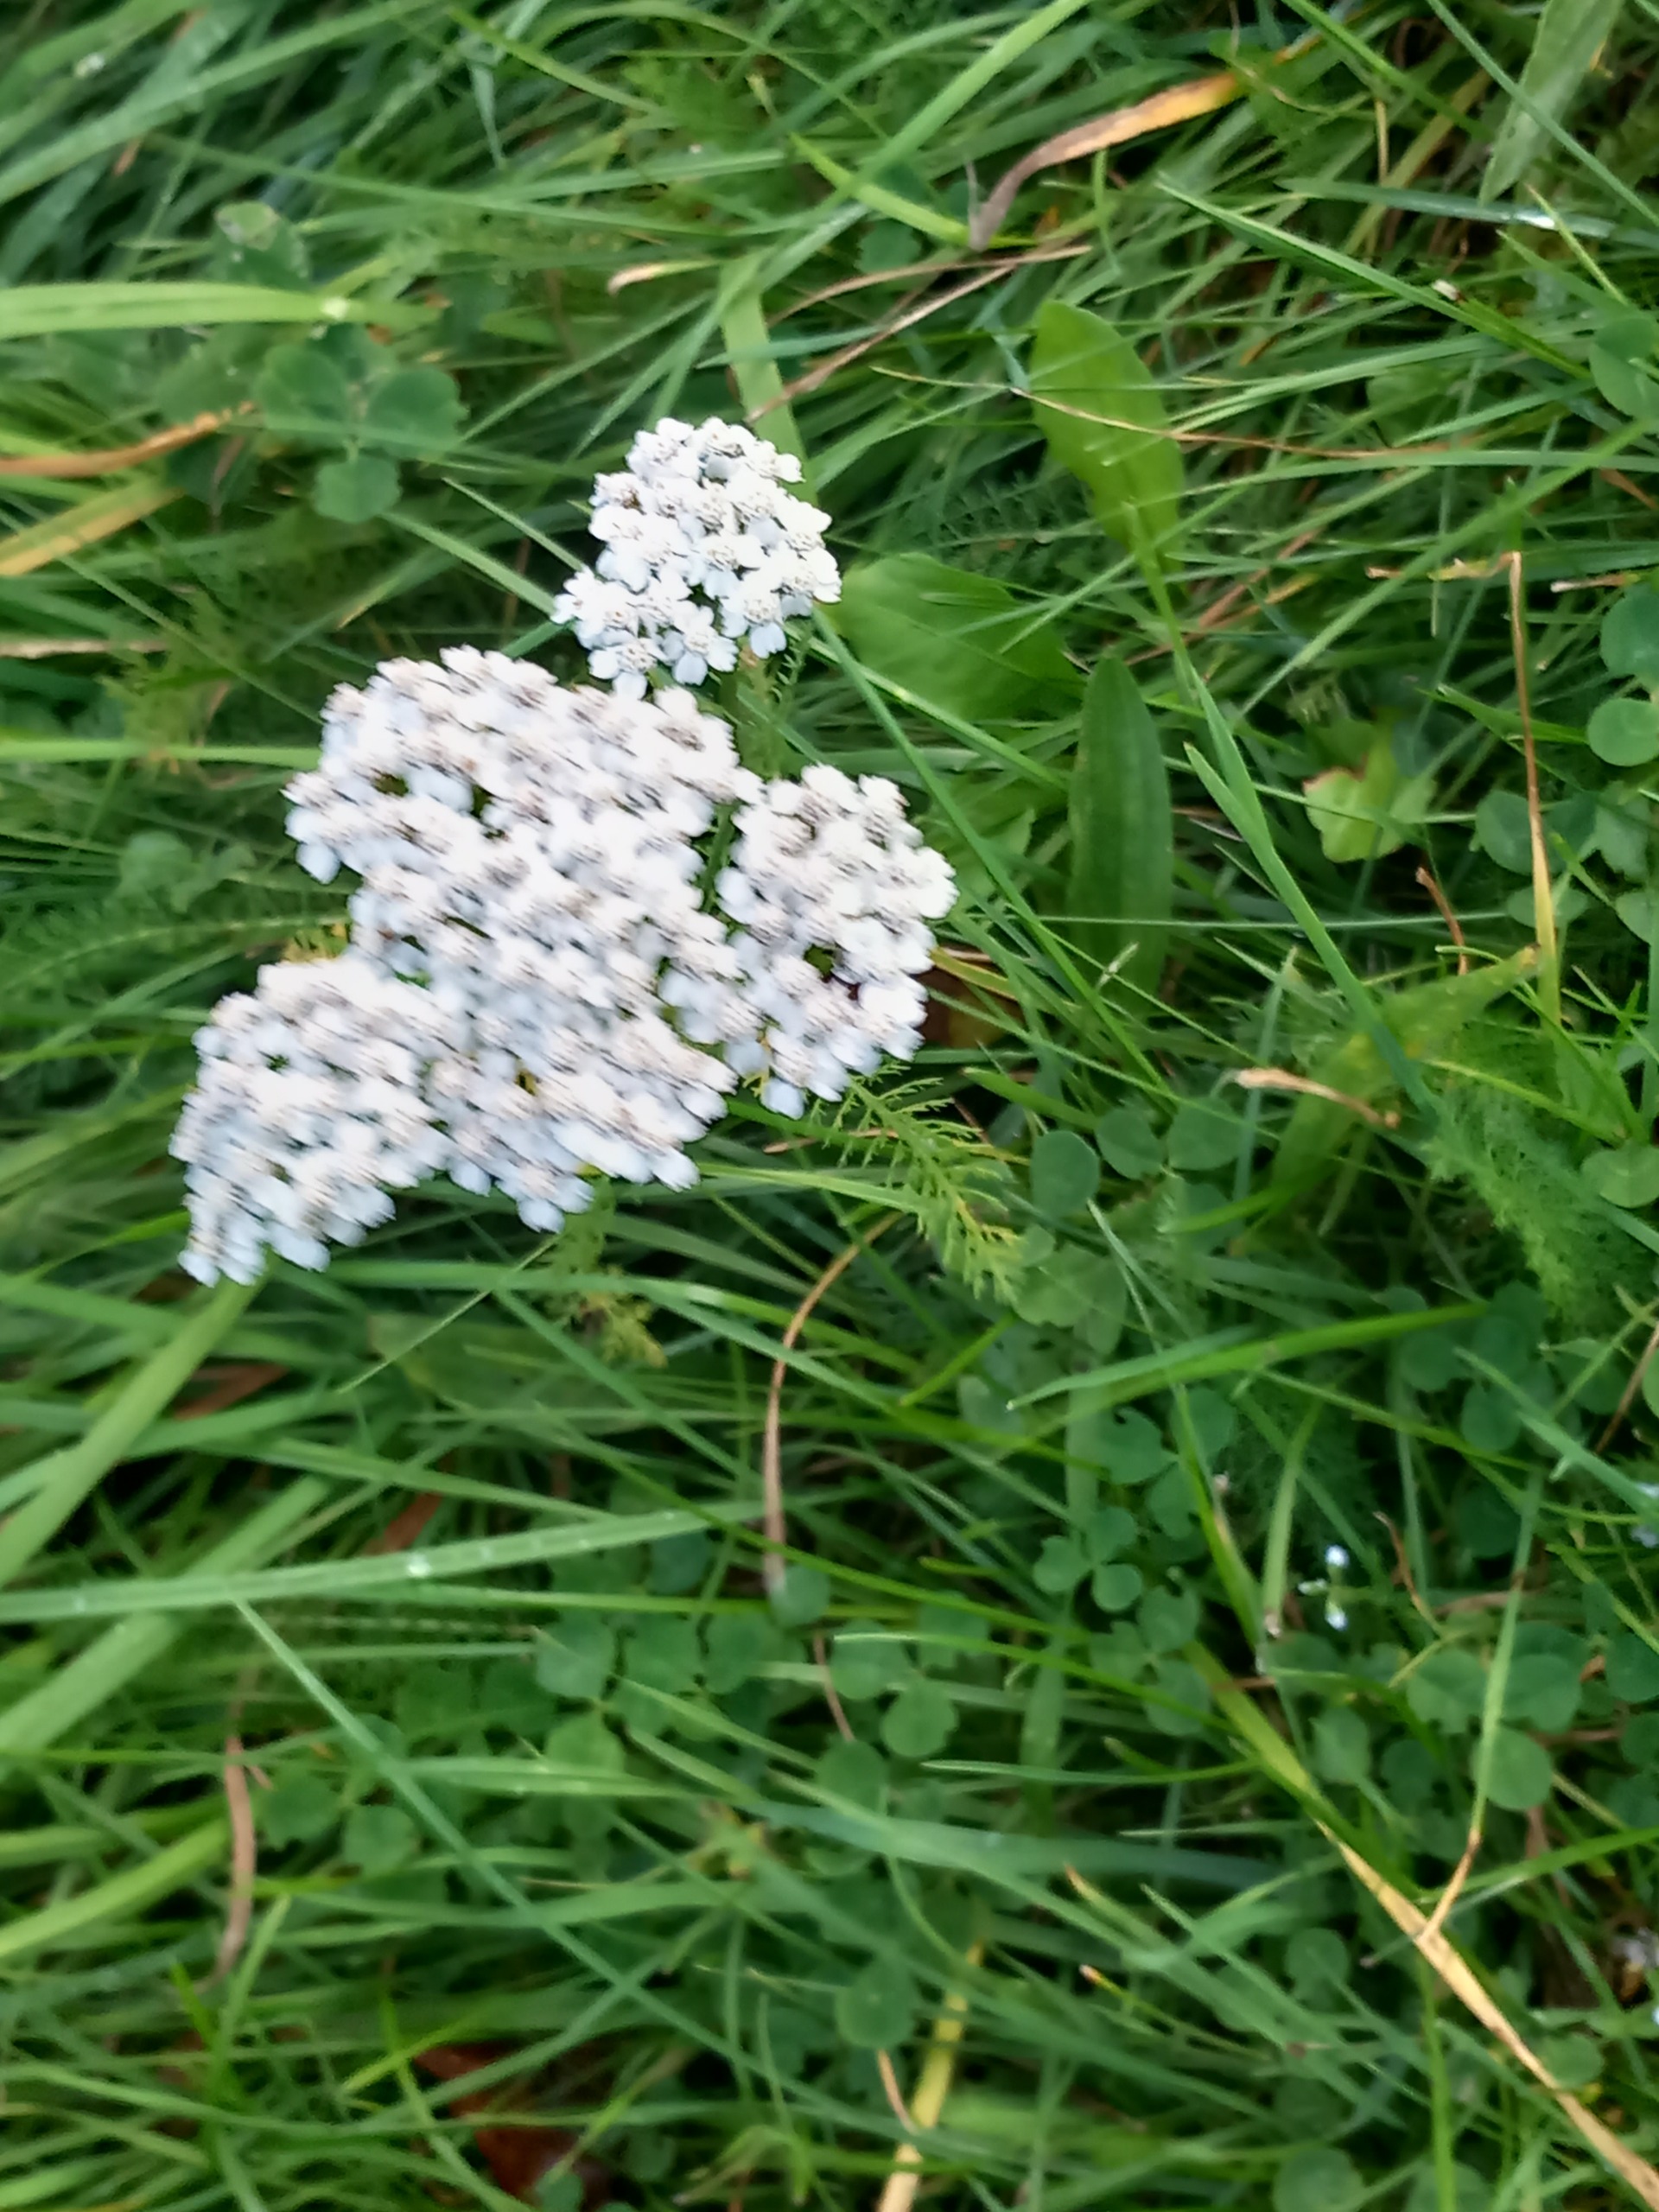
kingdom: Plantae
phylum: Tracheophyta
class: Magnoliopsida
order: Asterales
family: Asteraceae
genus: Achillea
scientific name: Achillea millefolium
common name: Almindelig røllike
